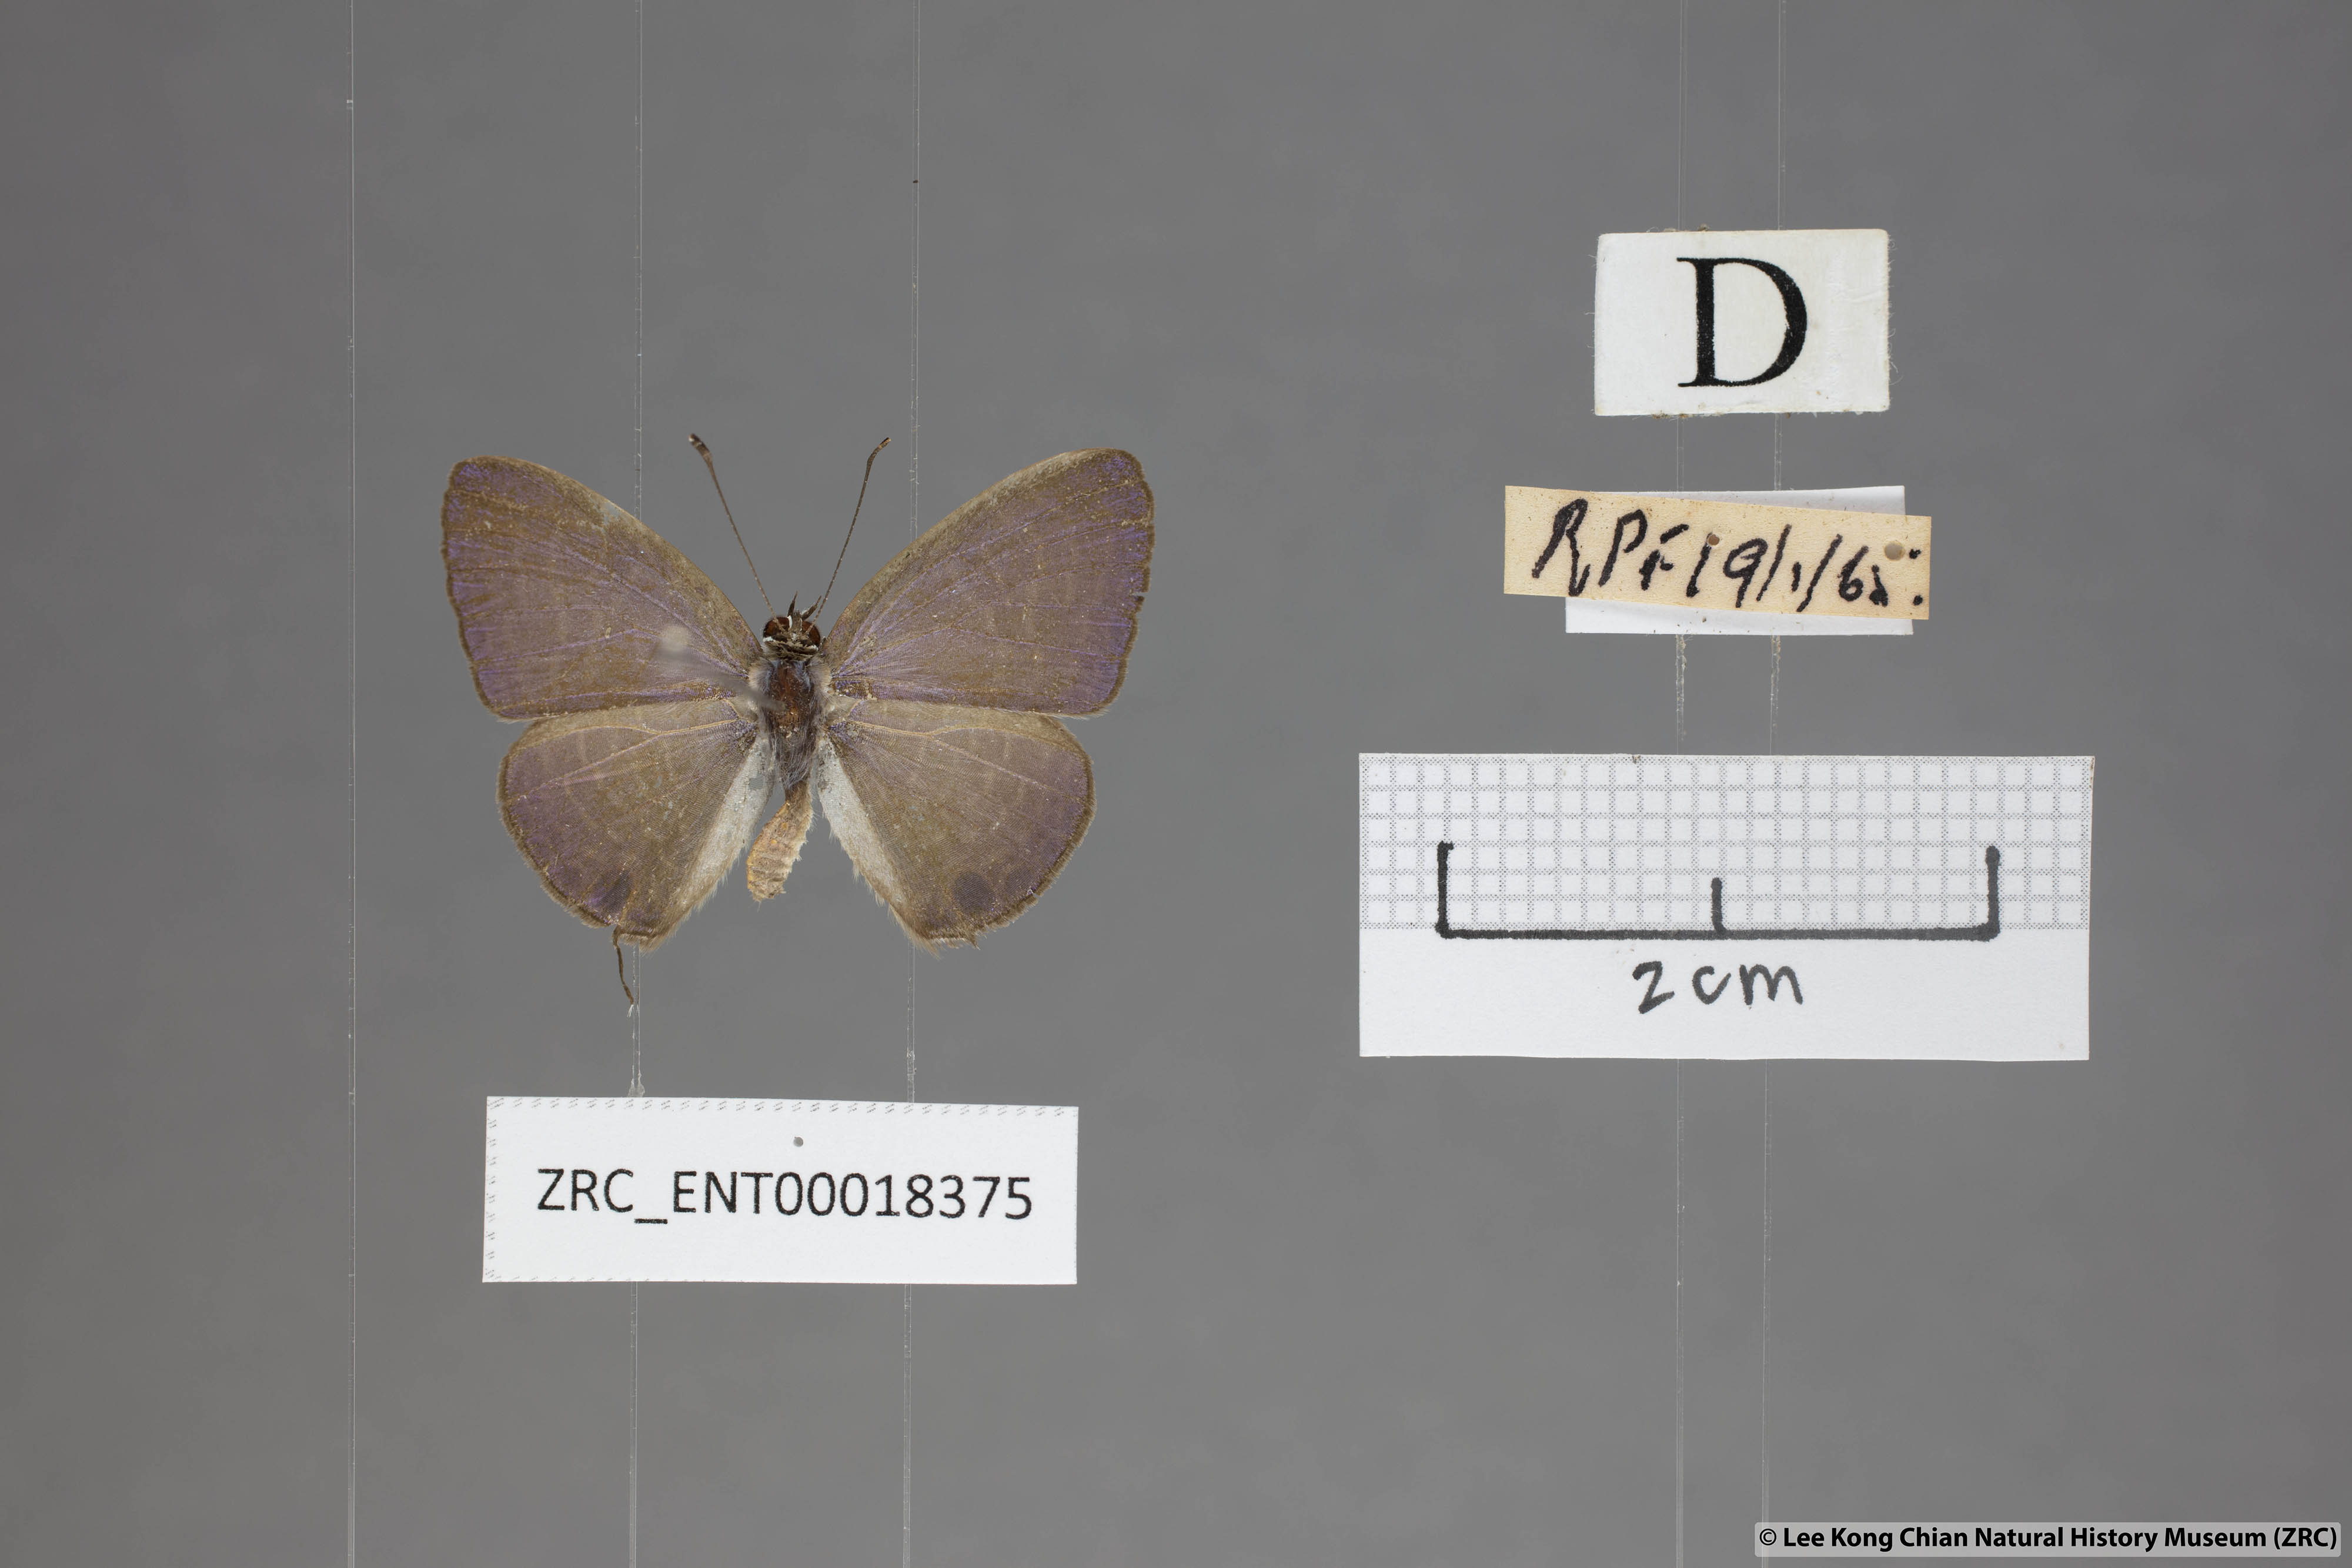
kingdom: Animalia
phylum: Arthropoda
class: Insecta
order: Lepidoptera
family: Lycaenidae
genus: Nacaduba
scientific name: Nacaduba kurava
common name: Transparent 6-line blue
